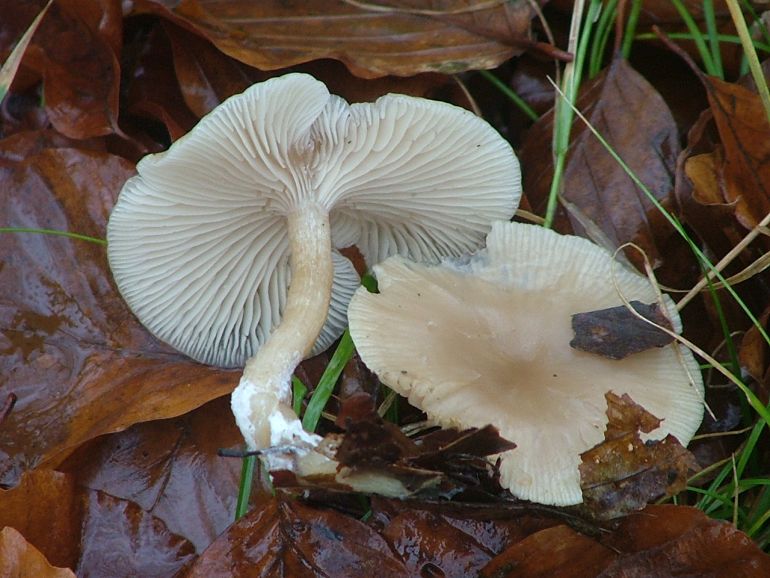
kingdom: Fungi
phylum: Basidiomycota
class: Agaricomycetes
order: Agaricales
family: Tricholomataceae
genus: Clitocybe
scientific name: Clitocybe fragrans
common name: vellugtende tragthat
